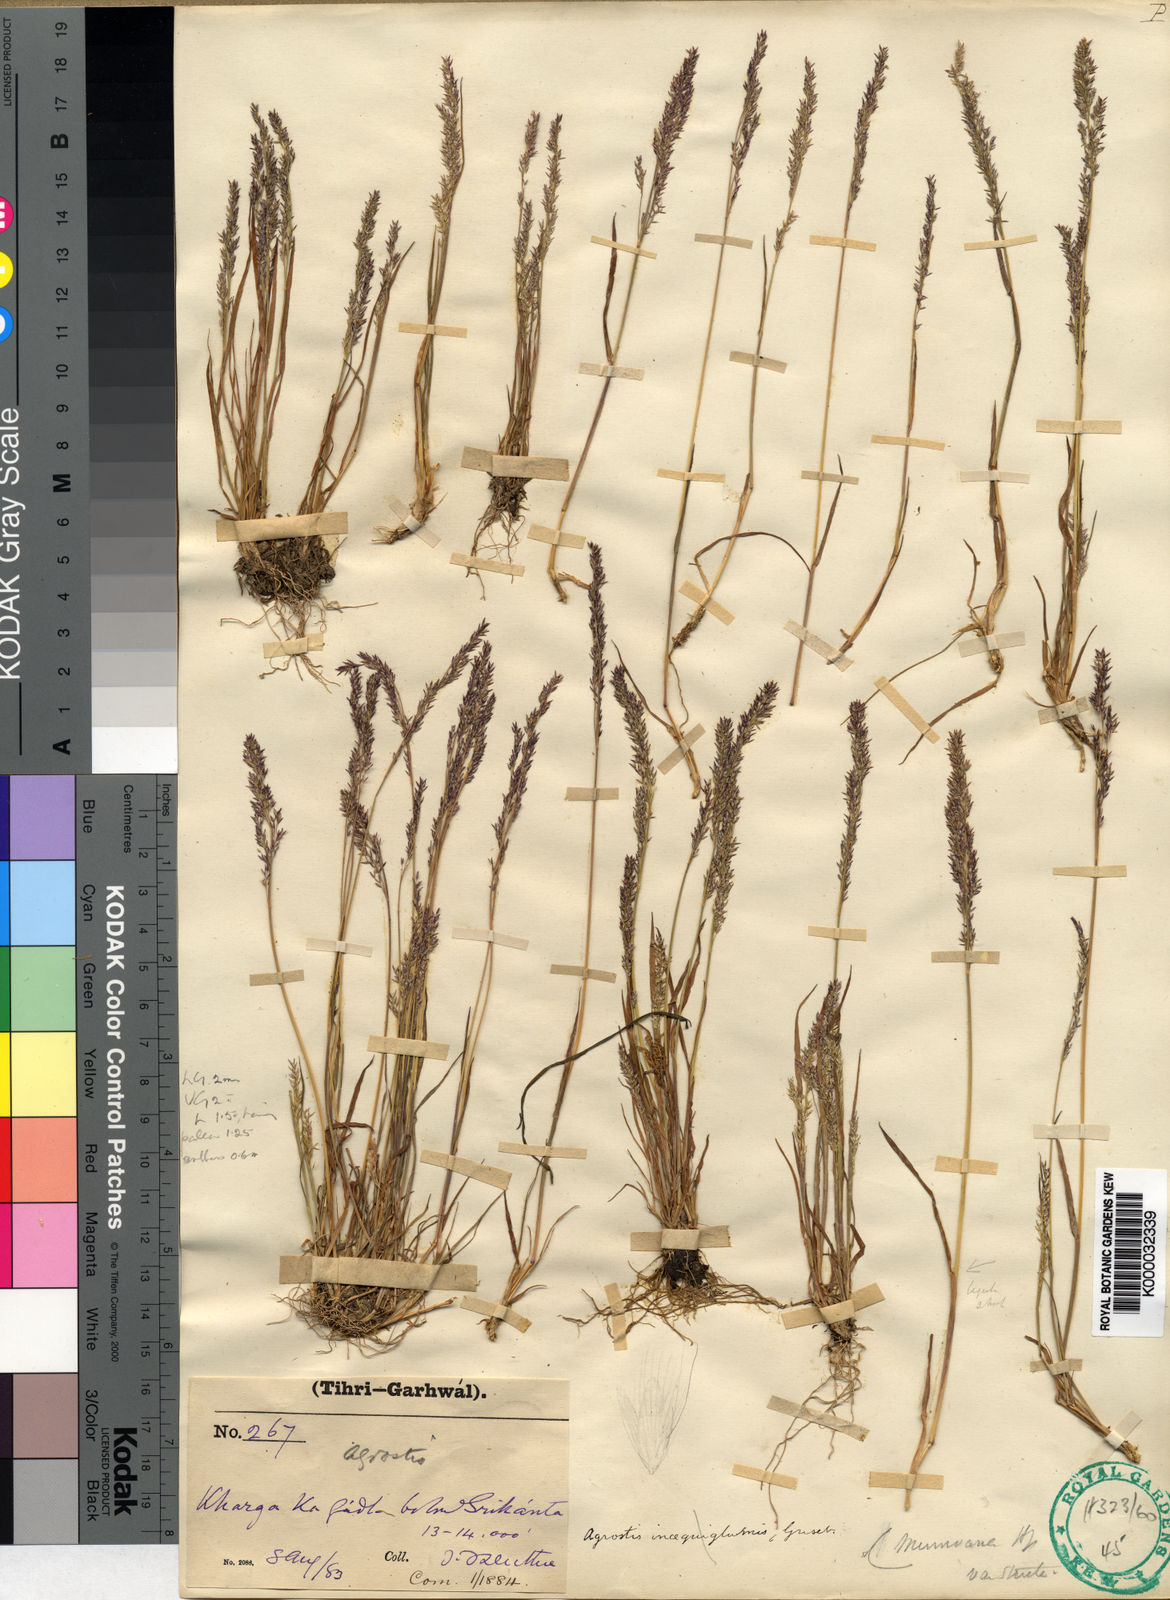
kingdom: Plantae
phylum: Tracheophyta
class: Liliopsida
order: Poales
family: Poaceae
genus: Agrostis
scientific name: Agrostis munroana
